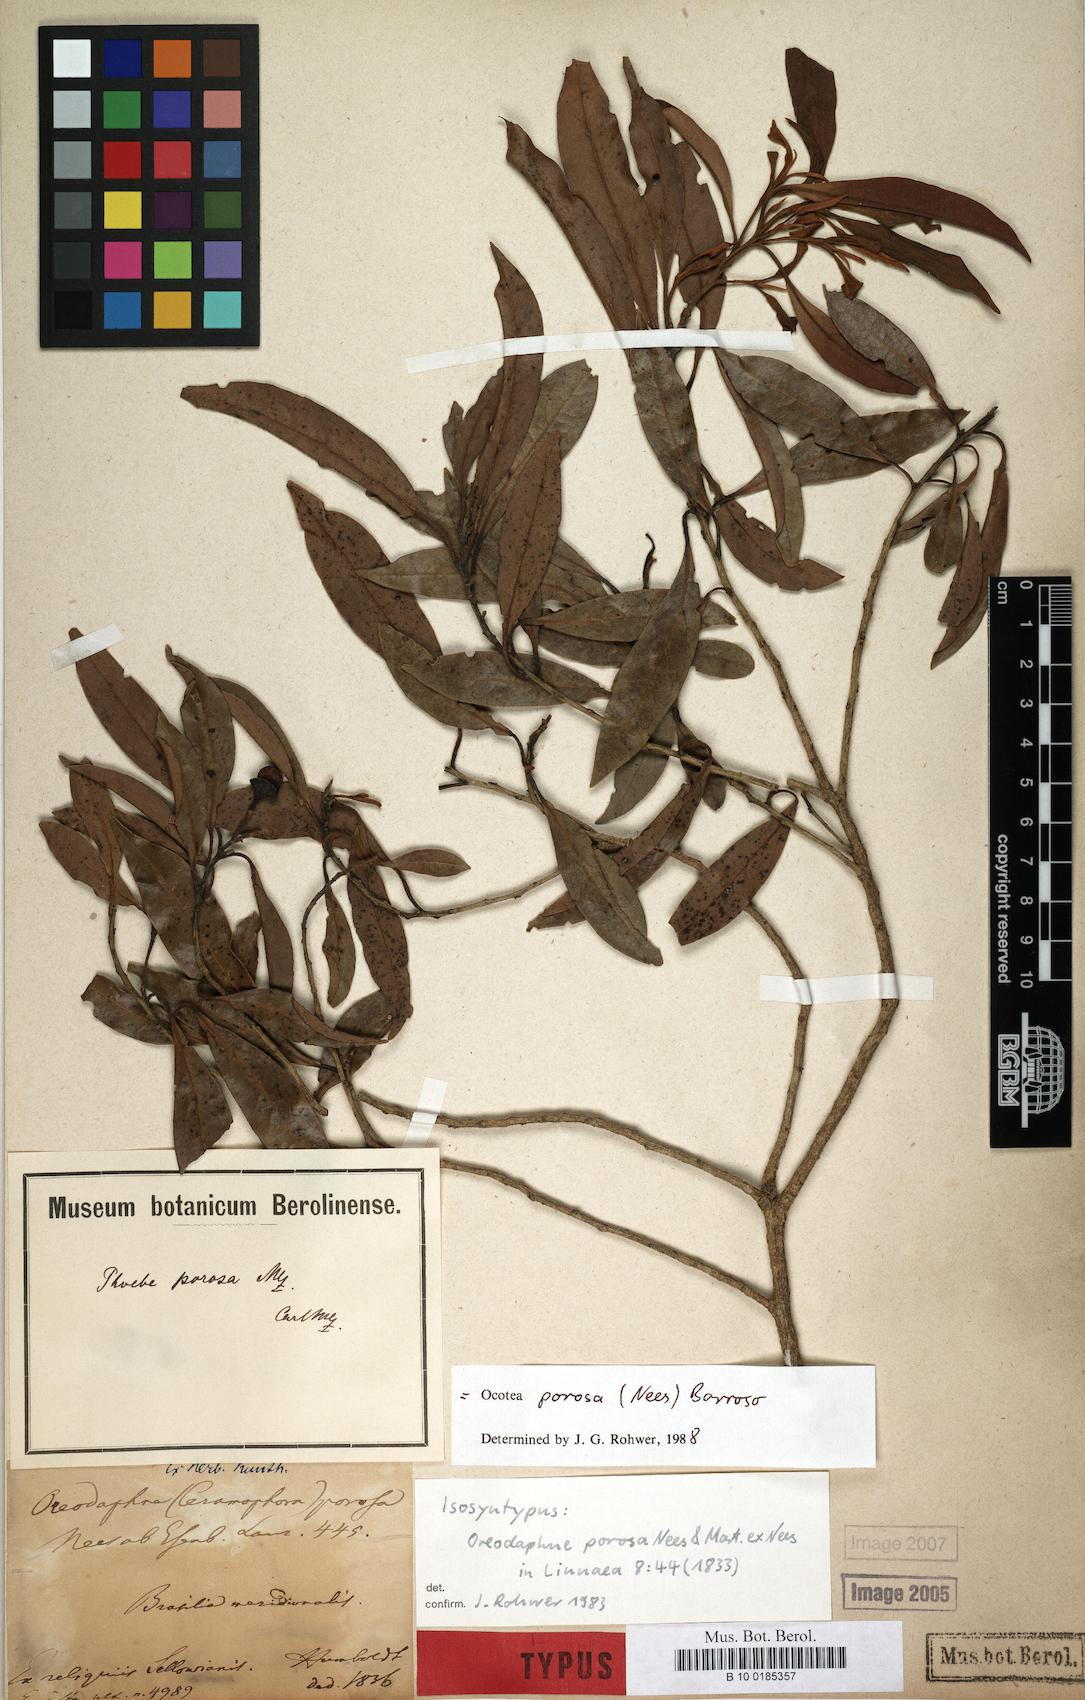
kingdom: Plantae
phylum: Tracheophyta
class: Magnoliopsida
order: Laurales
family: Lauraceae
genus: Ocotea
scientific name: Ocotea porosa
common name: Brazilian-walnut
